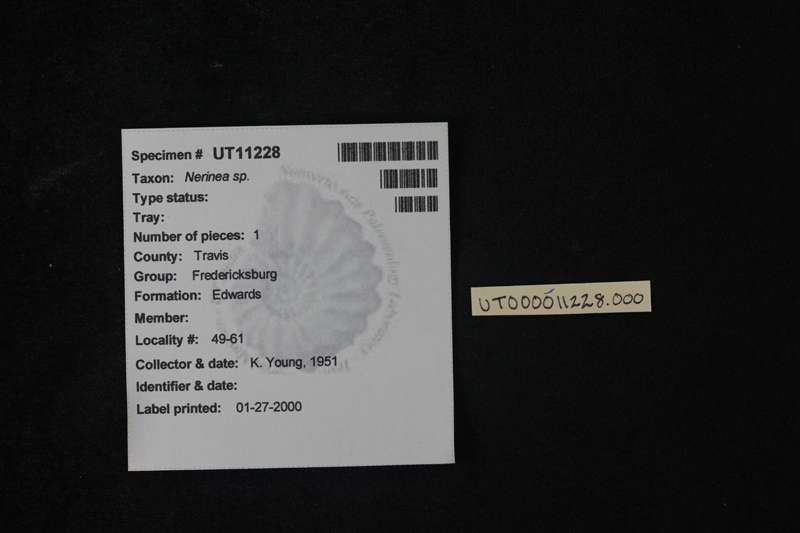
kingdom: Animalia
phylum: Mollusca
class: Gastropoda
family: Nerineidae
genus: Nerinea
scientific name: Nerinea
